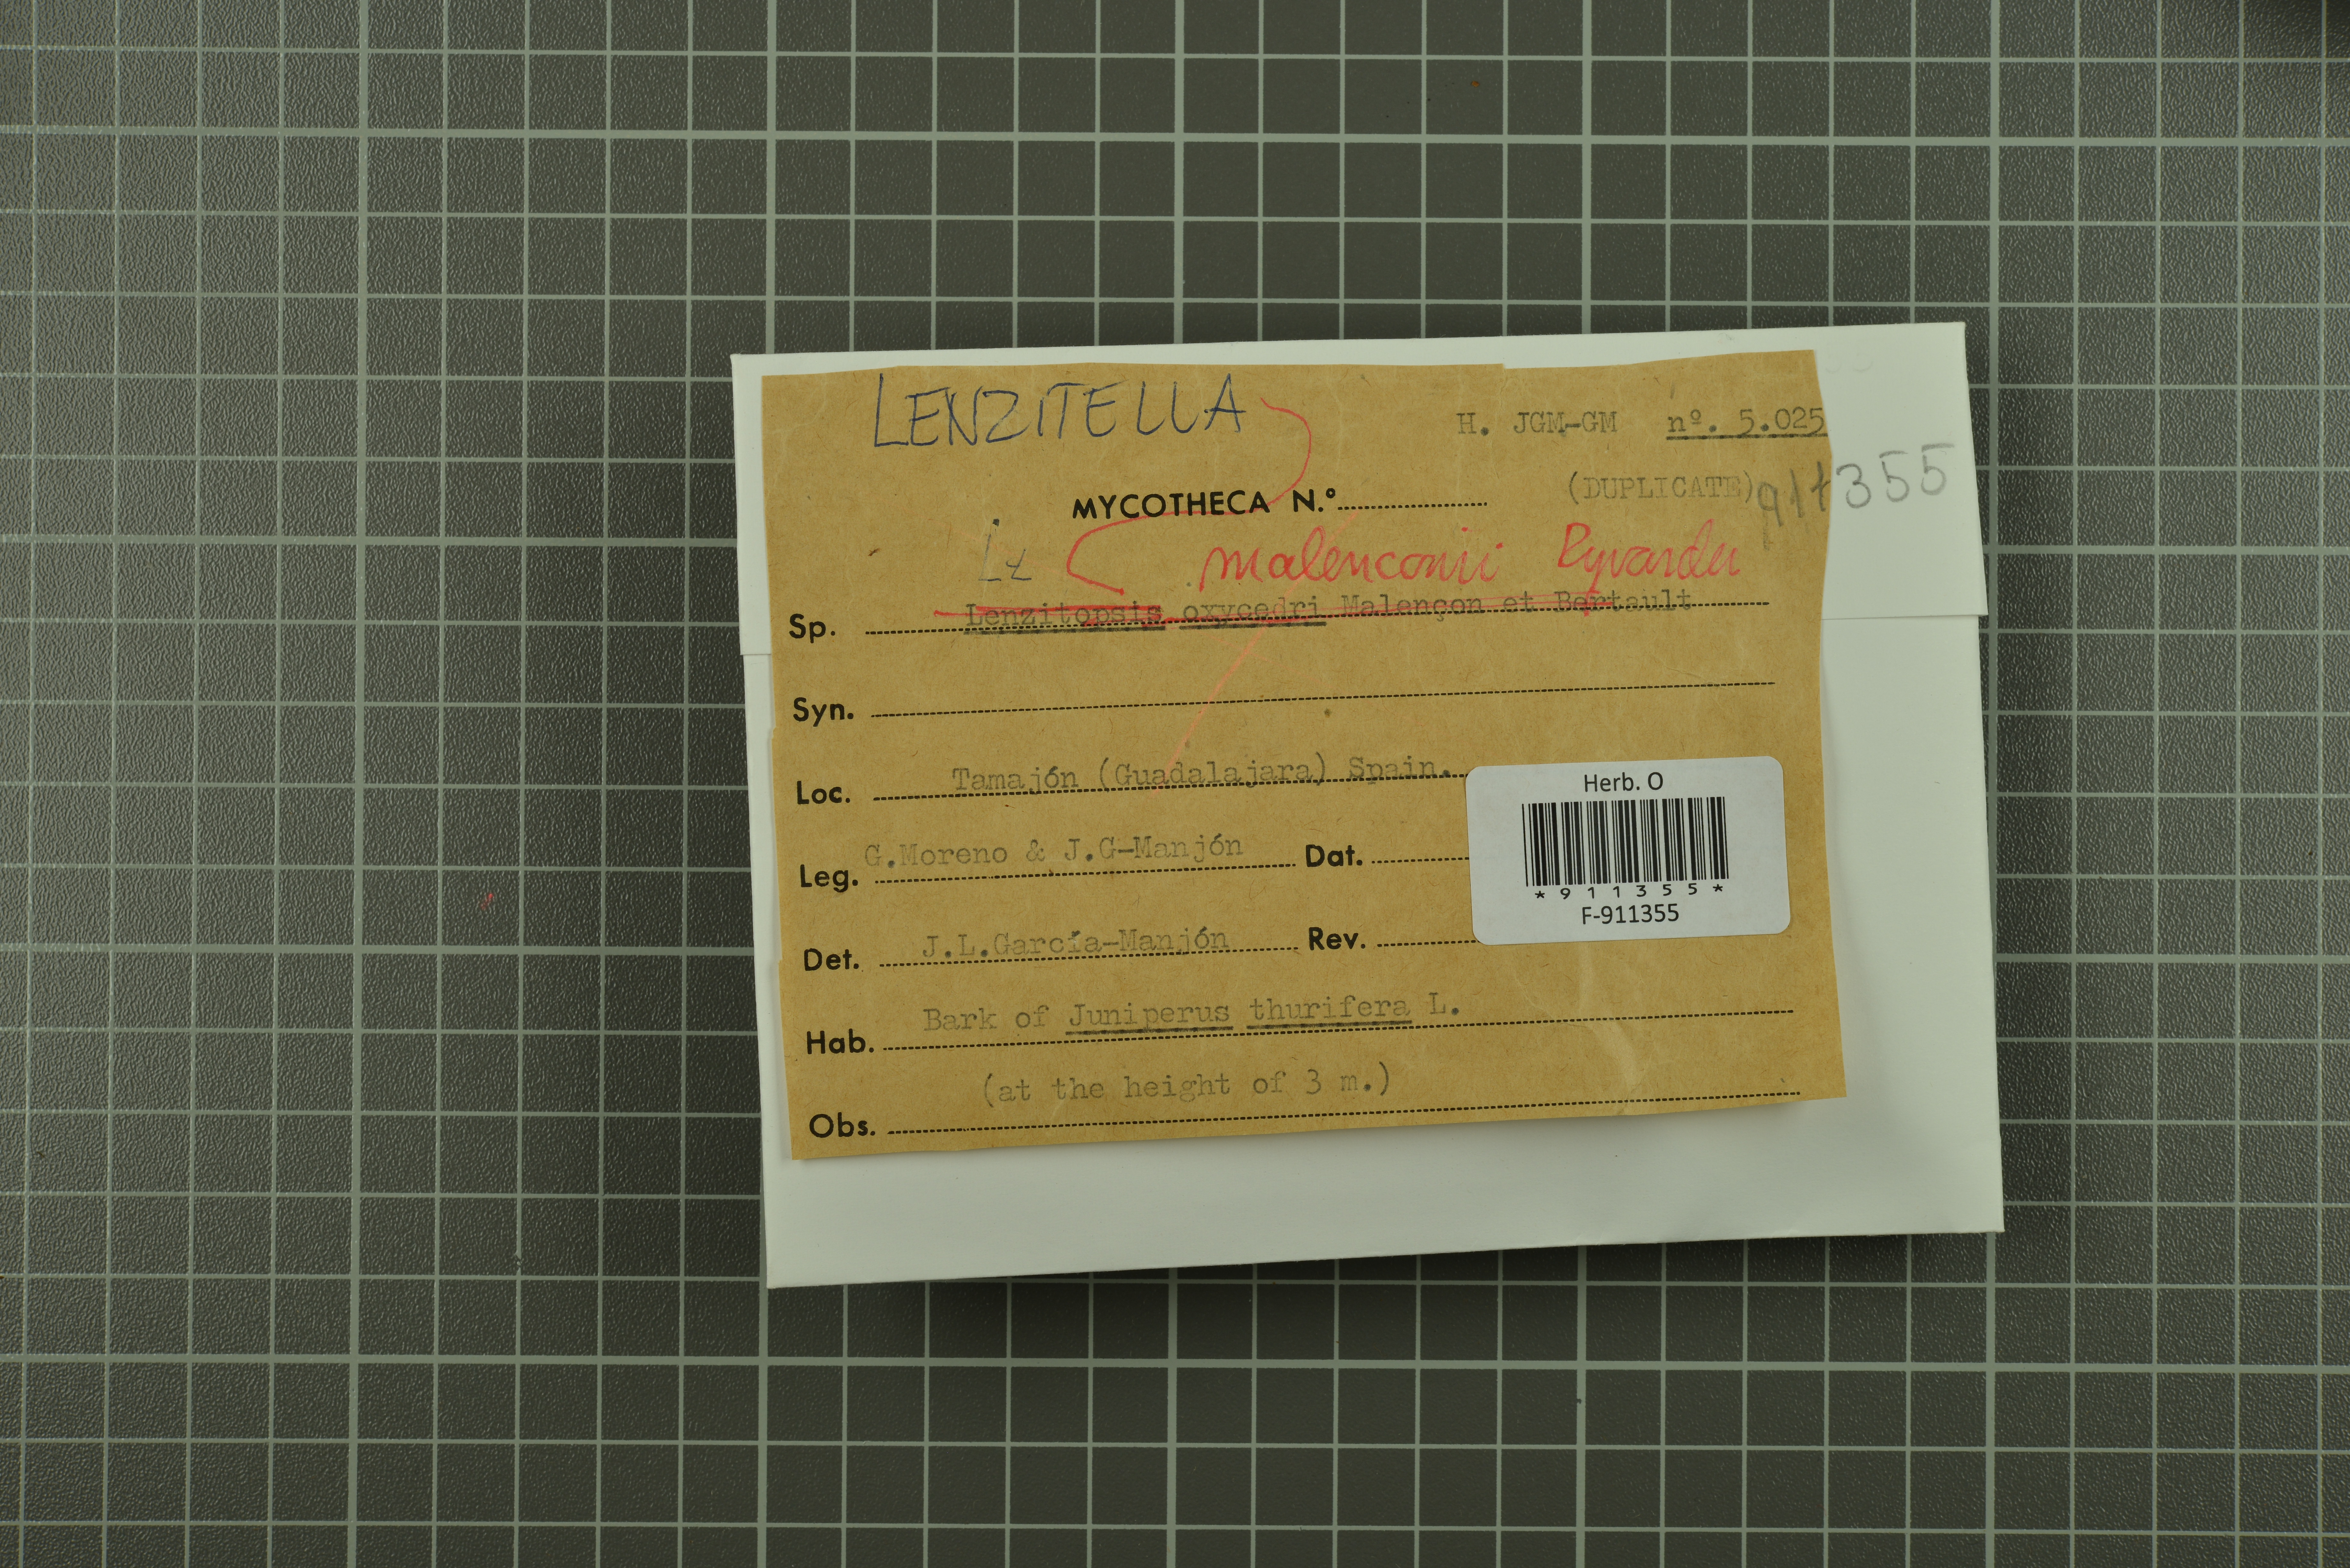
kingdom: Fungi
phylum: Basidiomycota
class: Agaricomycetes
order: Thelephorales
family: Thelephoraceae
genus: Lenzitopsis
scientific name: Lenzitopsis oxycedri
